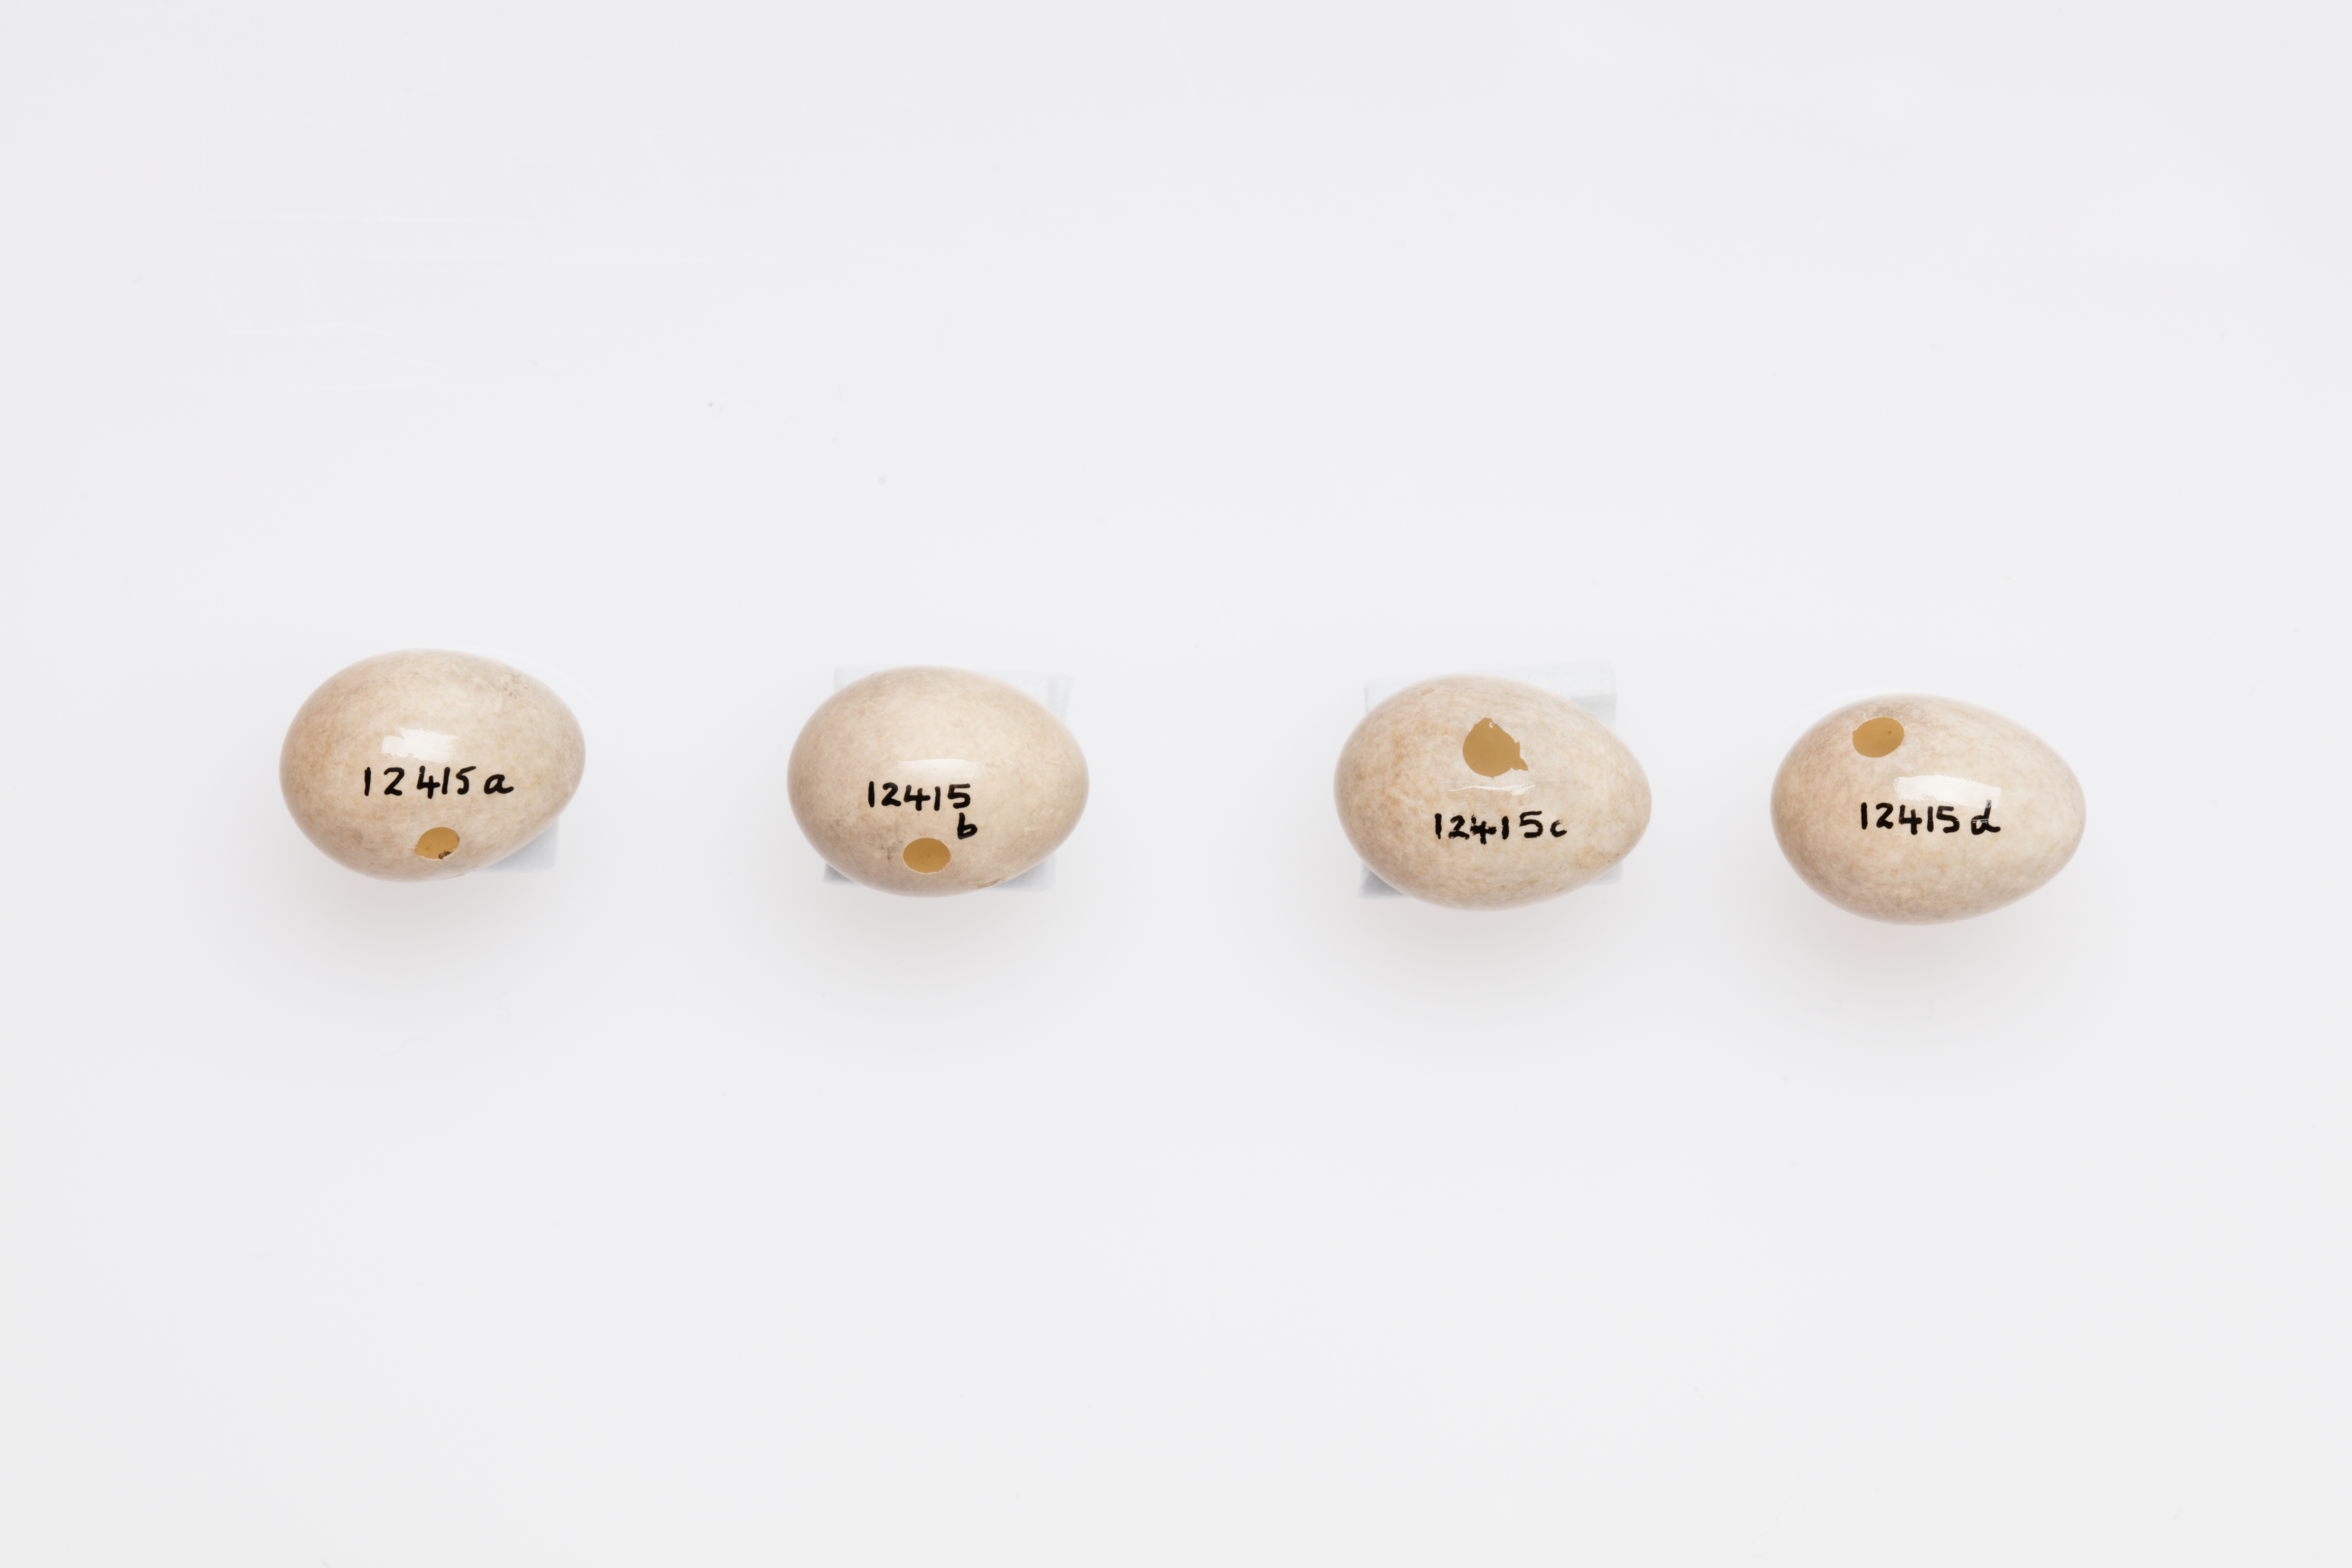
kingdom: Animalia
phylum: Chordata
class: Aves
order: Passeriformes
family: Regulidae
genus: Regulus
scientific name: Regulus regulus
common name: Goldcrest
